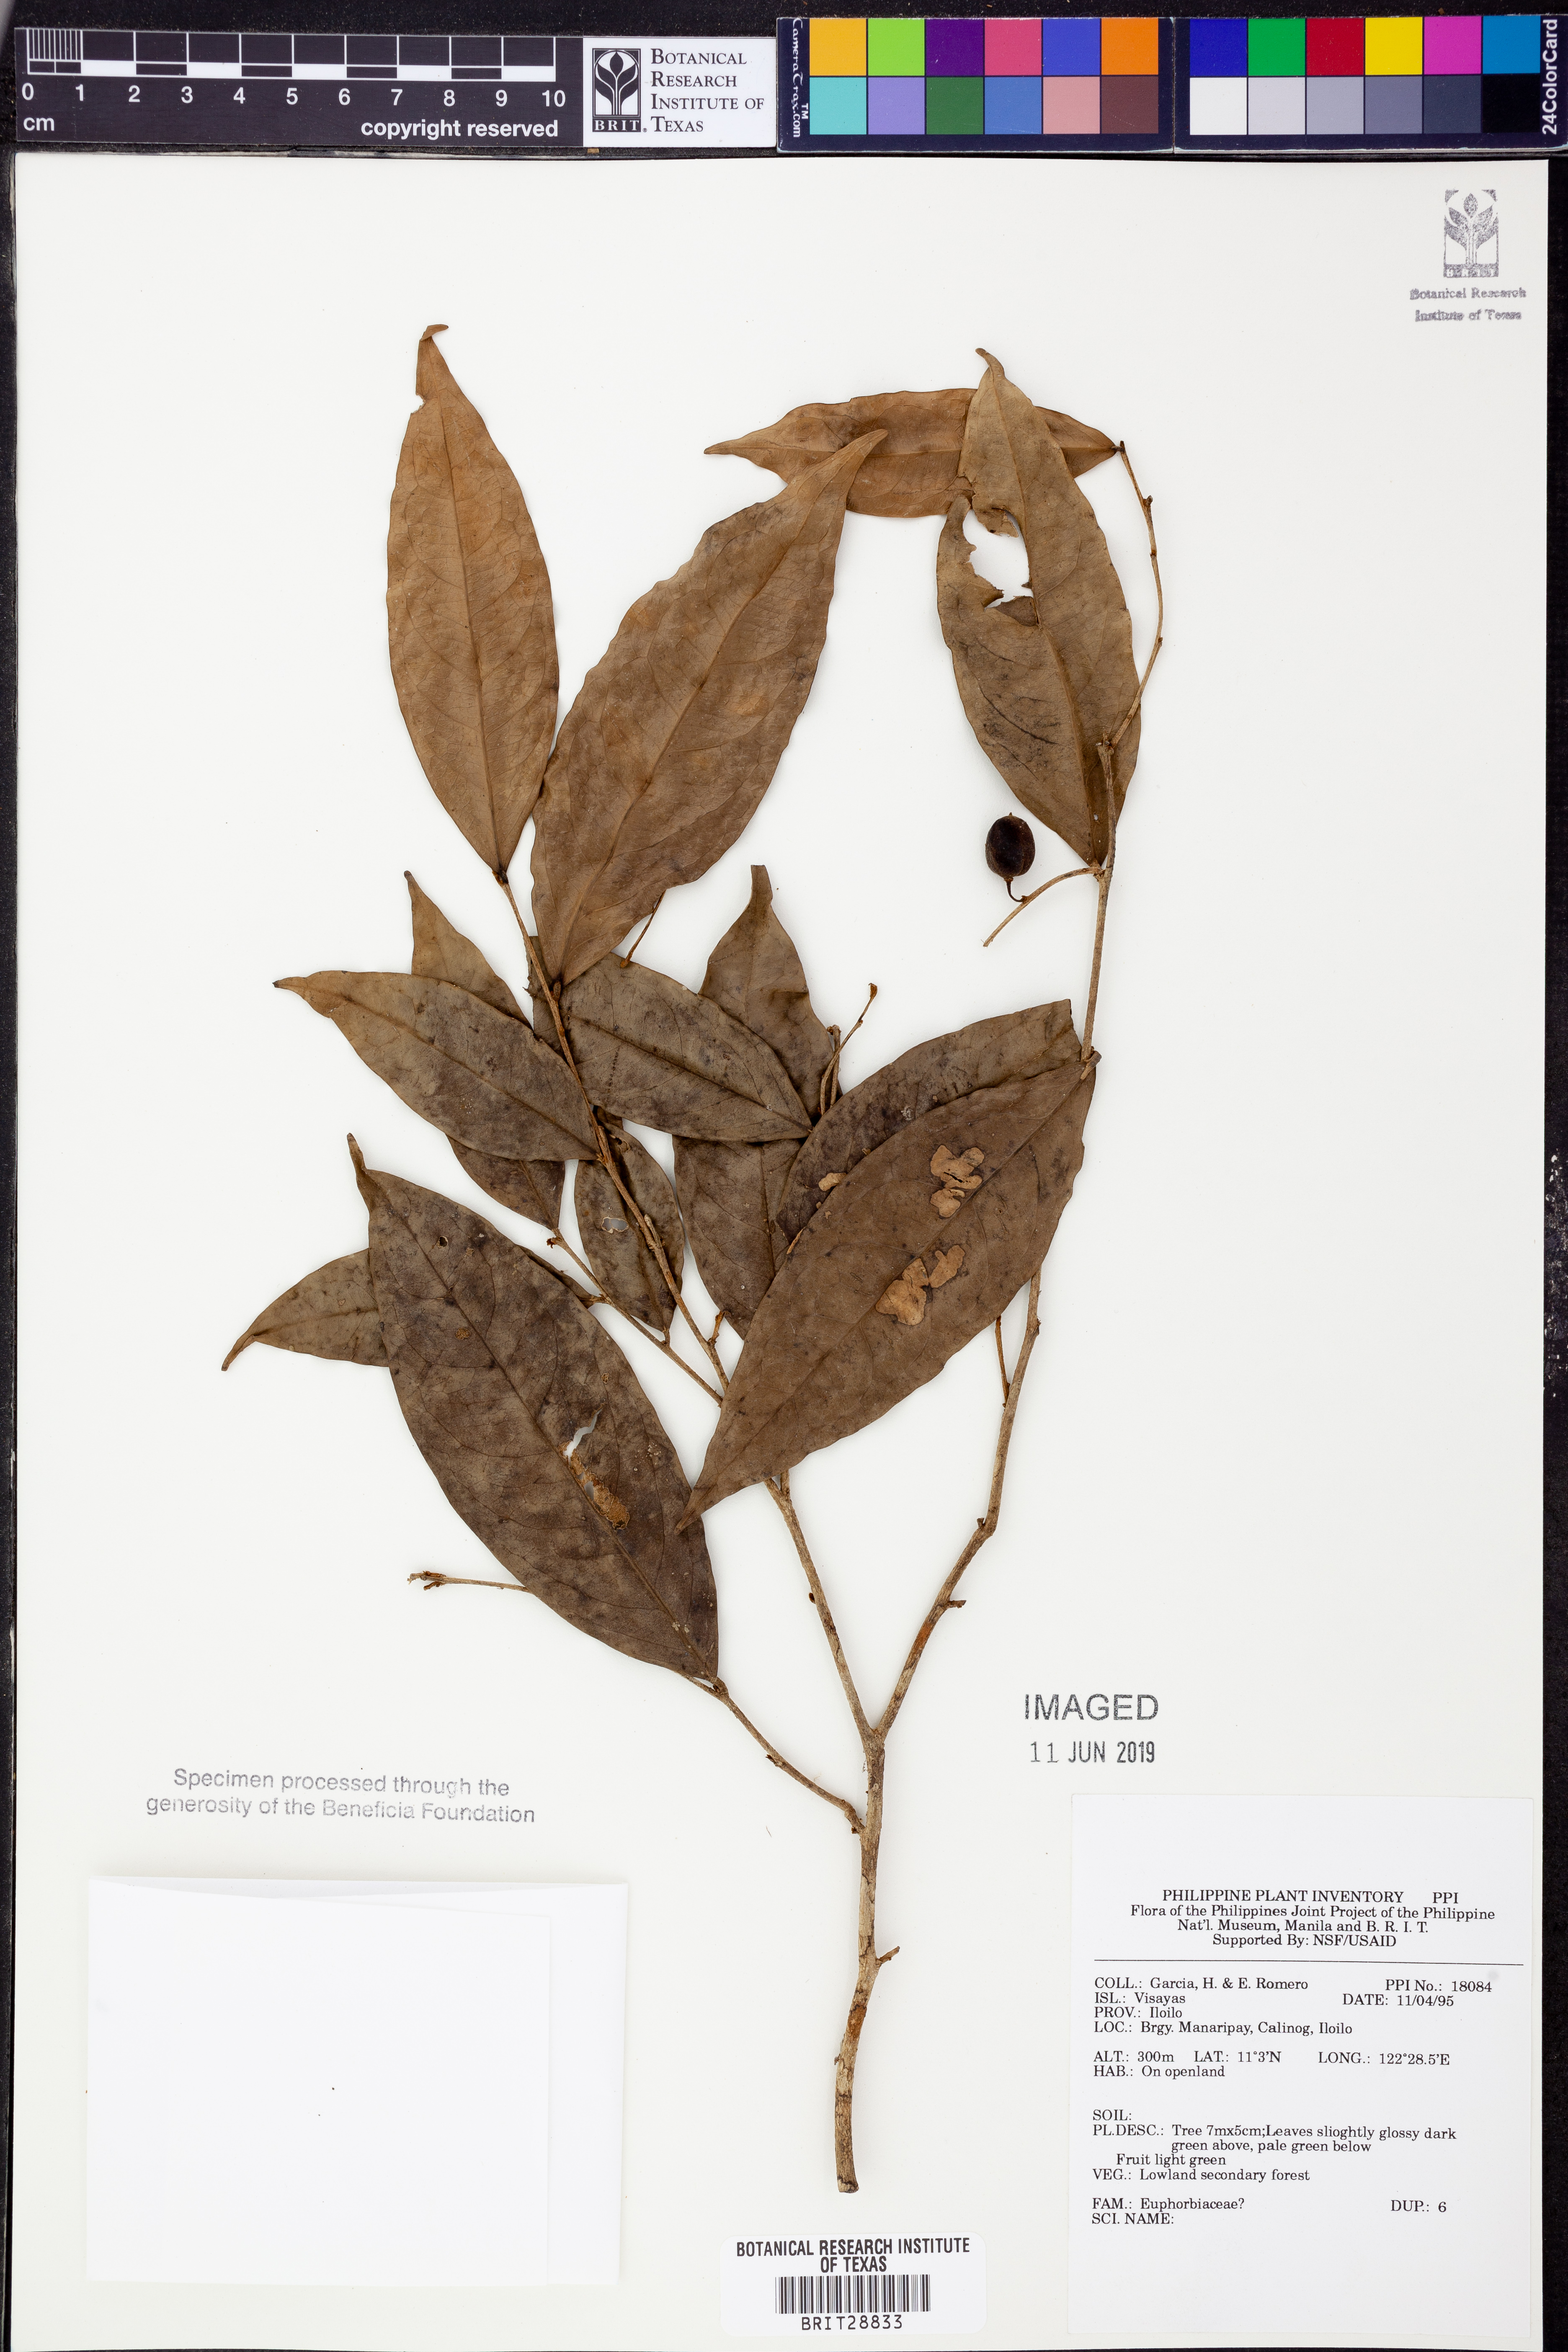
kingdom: Plantae
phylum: Tracheophyta
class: Magnoliopsida
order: Malpighiales
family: Euphorbiaceae
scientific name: Euphorbiaceae
